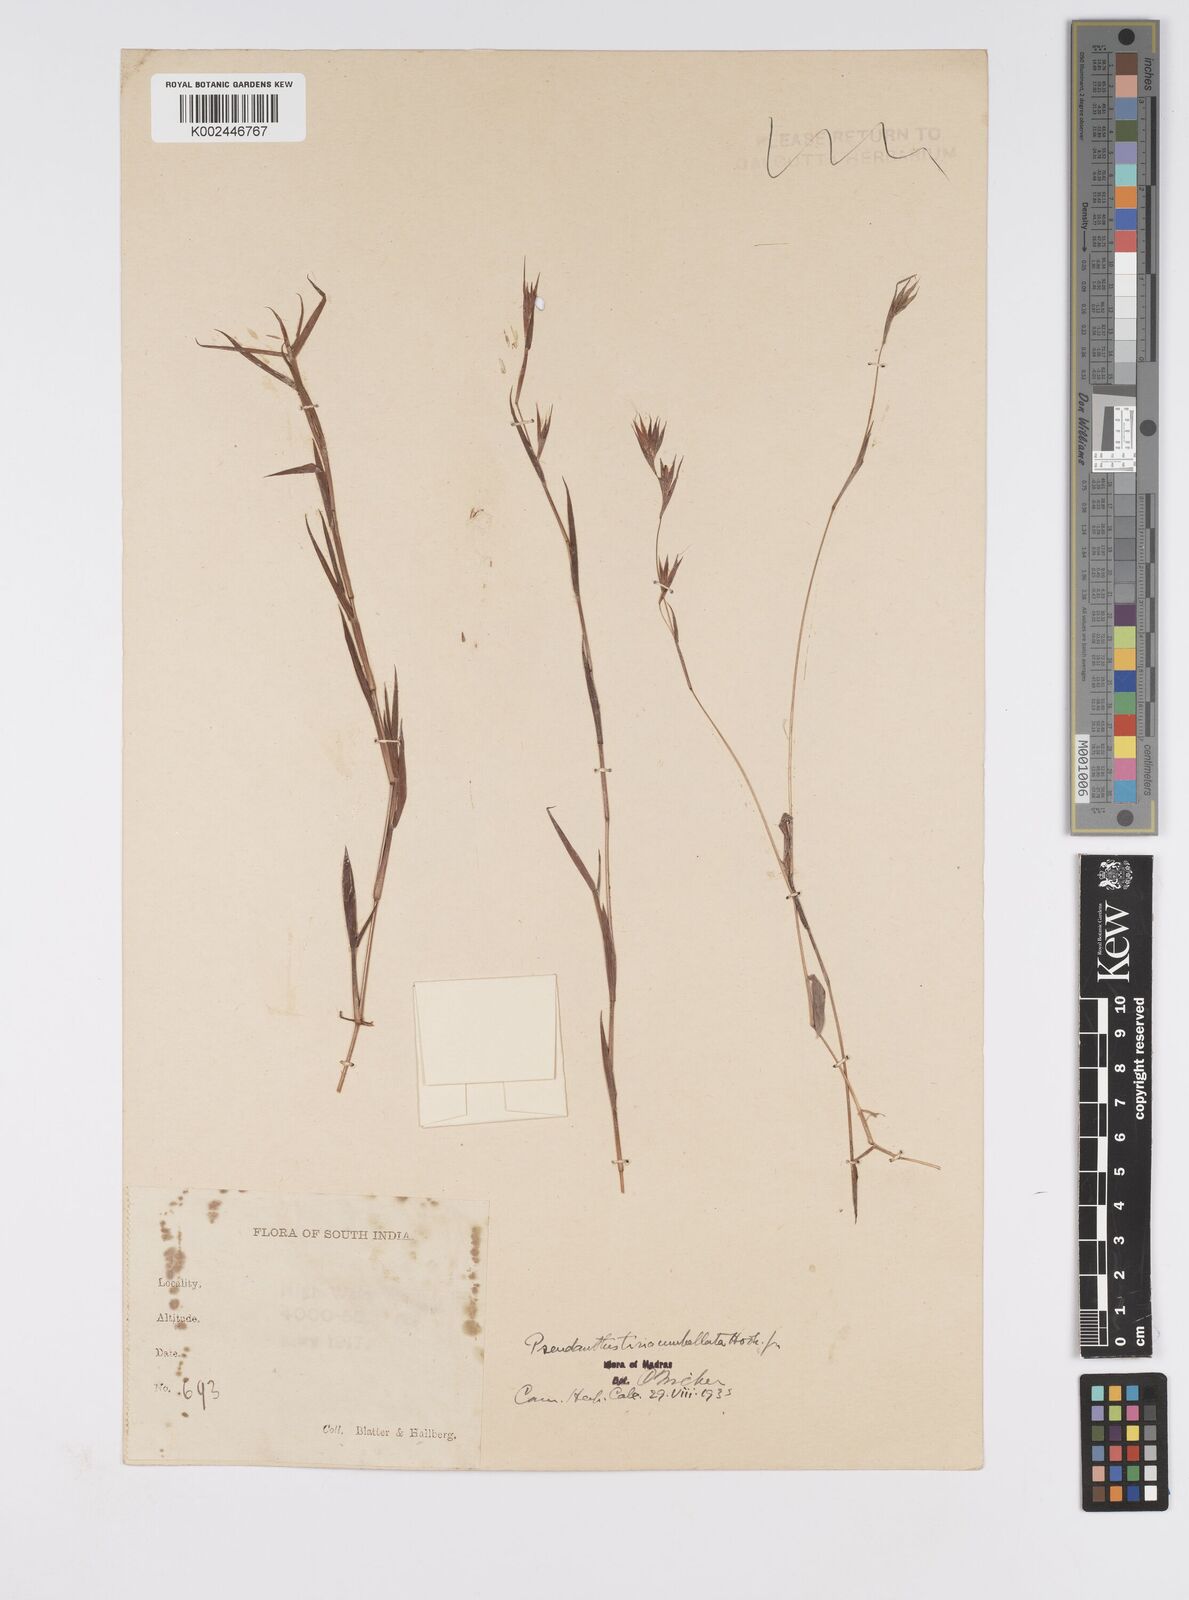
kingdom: Plantae
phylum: Tracheophyta
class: Liliopsida
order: Poales
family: Poaceae
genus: Pseudanthistiria
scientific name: Pseudanthistiria umbellata
